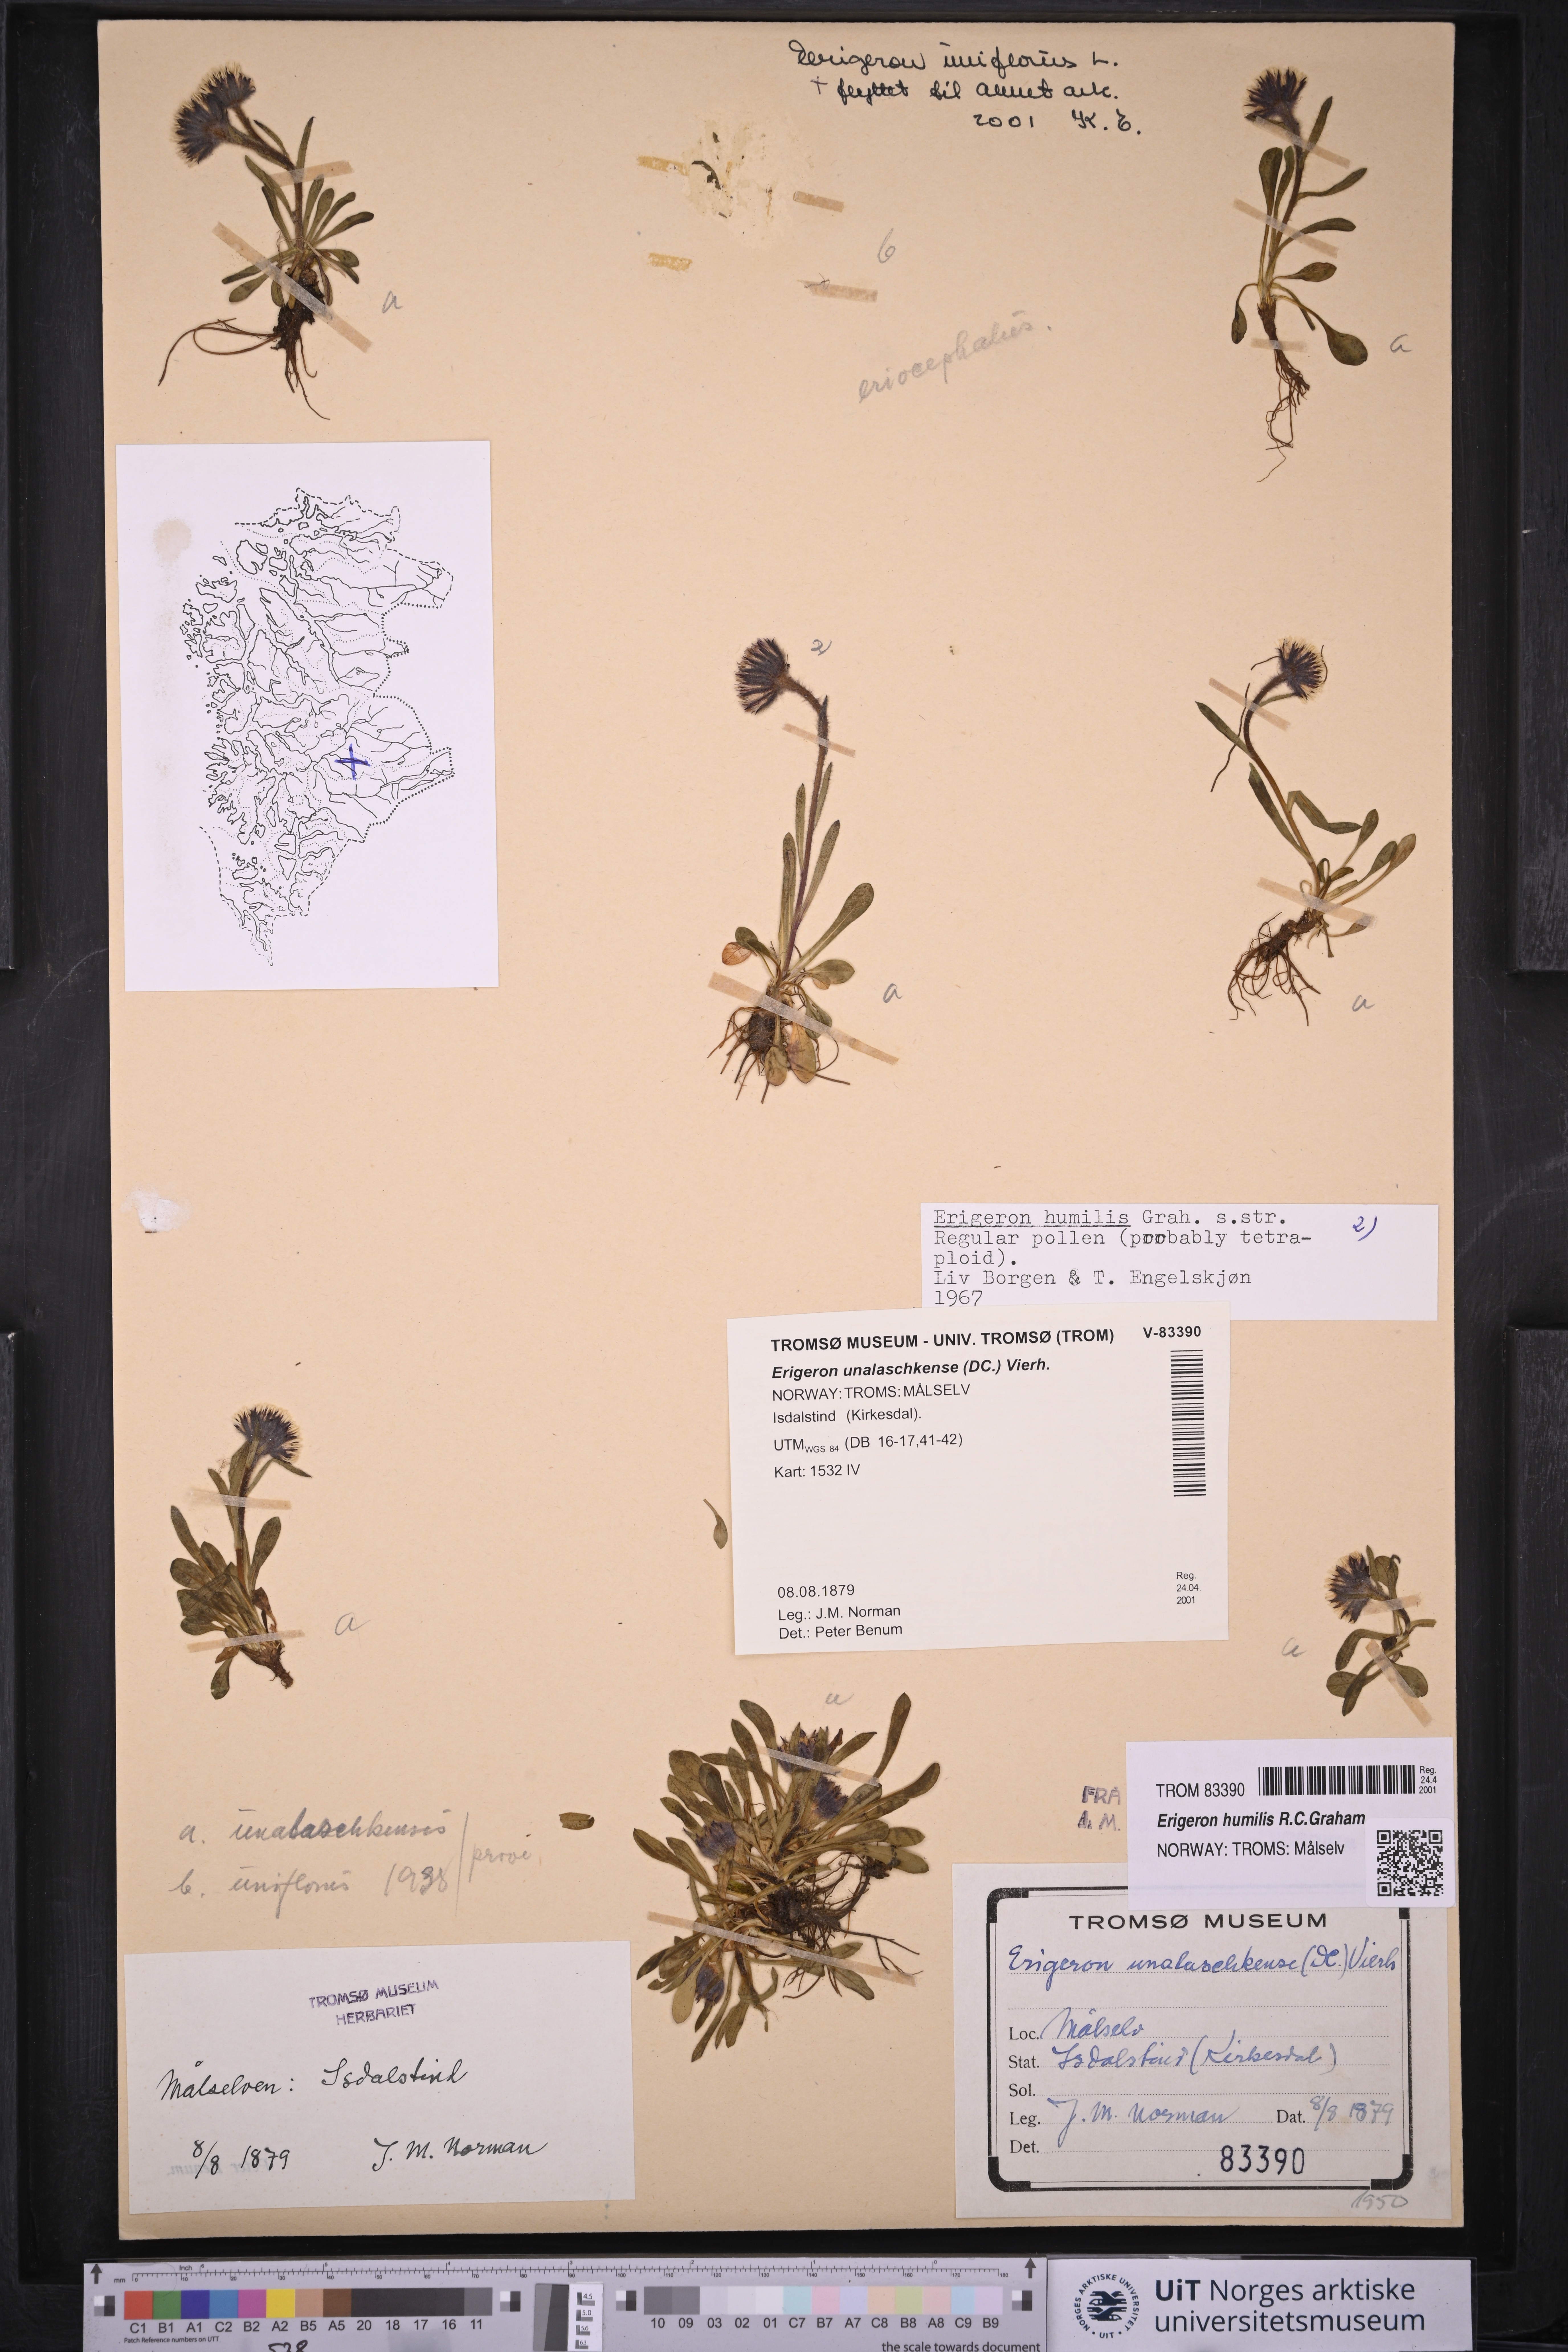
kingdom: Plantae
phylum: Tracheophyta
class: Magnoliopsida
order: Asterales
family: Asteraceae
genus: Erigeron
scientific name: Erigeron humilis
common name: Arctic-alpine fleabane
